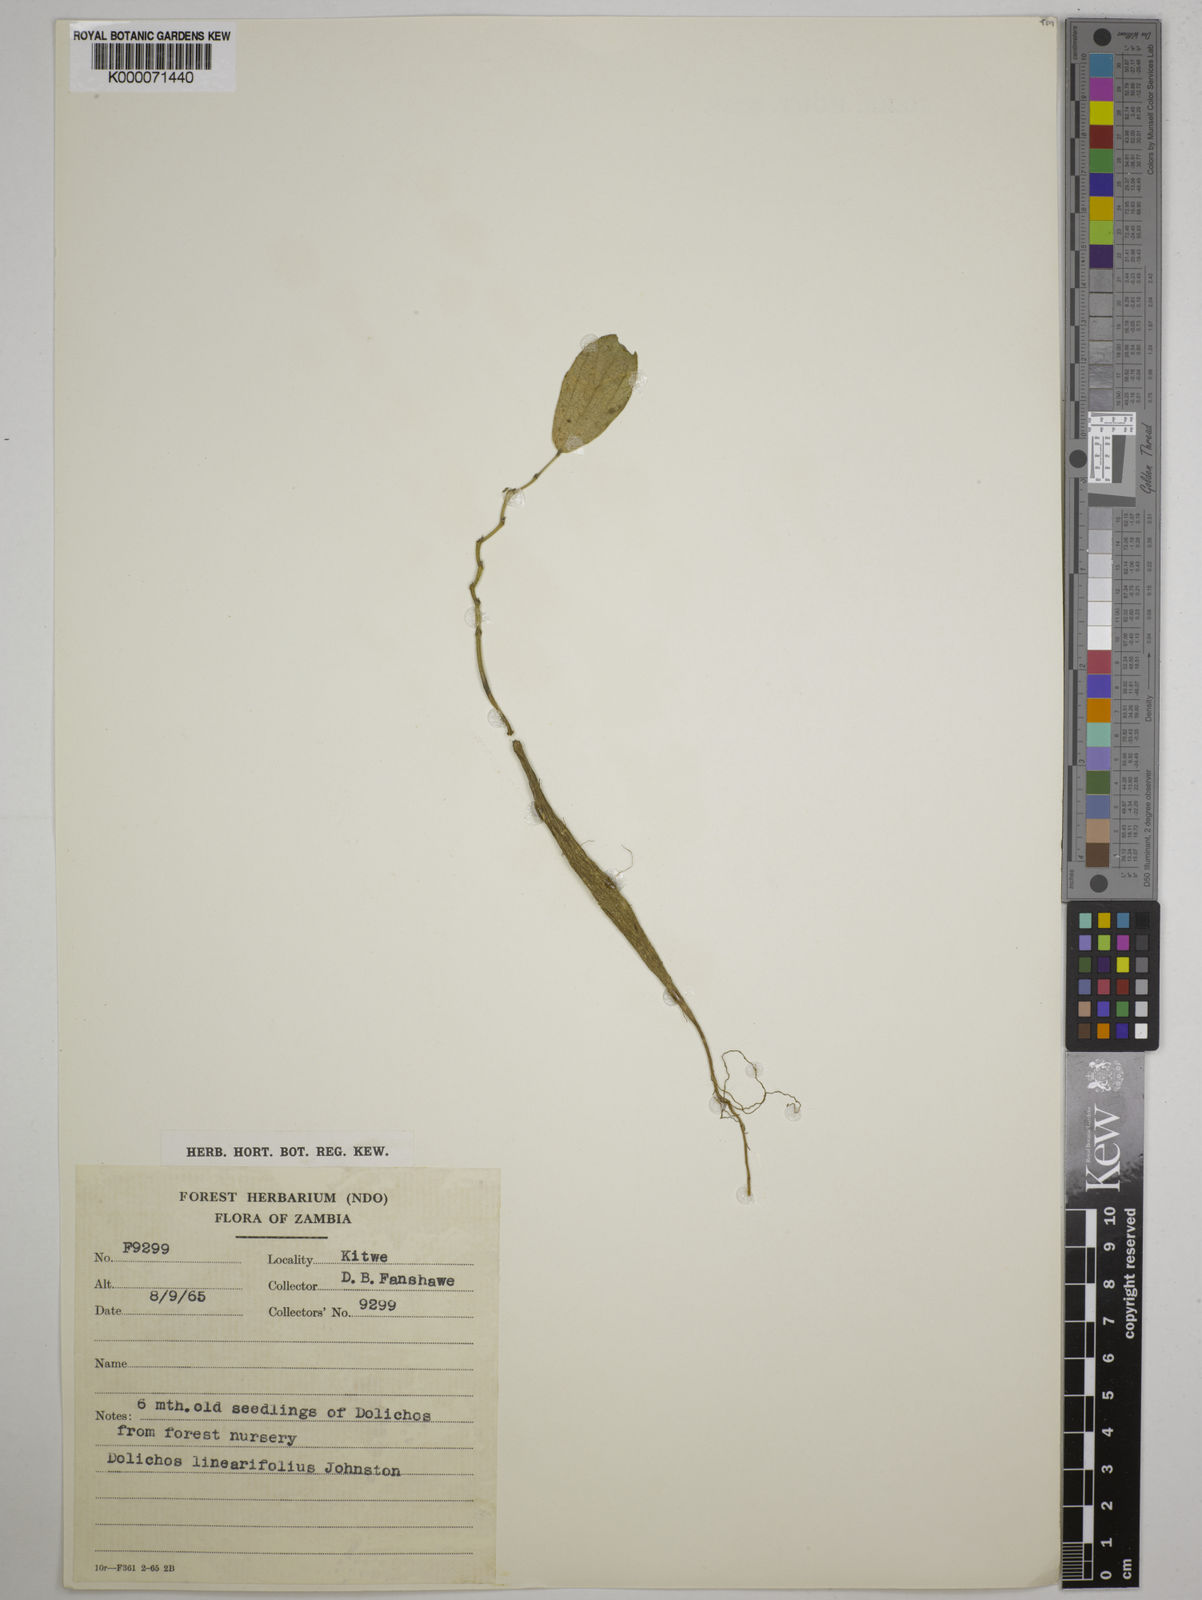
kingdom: Plantae
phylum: Tracheophyta
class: Magnoliopsida
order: Fabales
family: Fabaceae
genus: Dolichos
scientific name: Dolichos linearifolius
